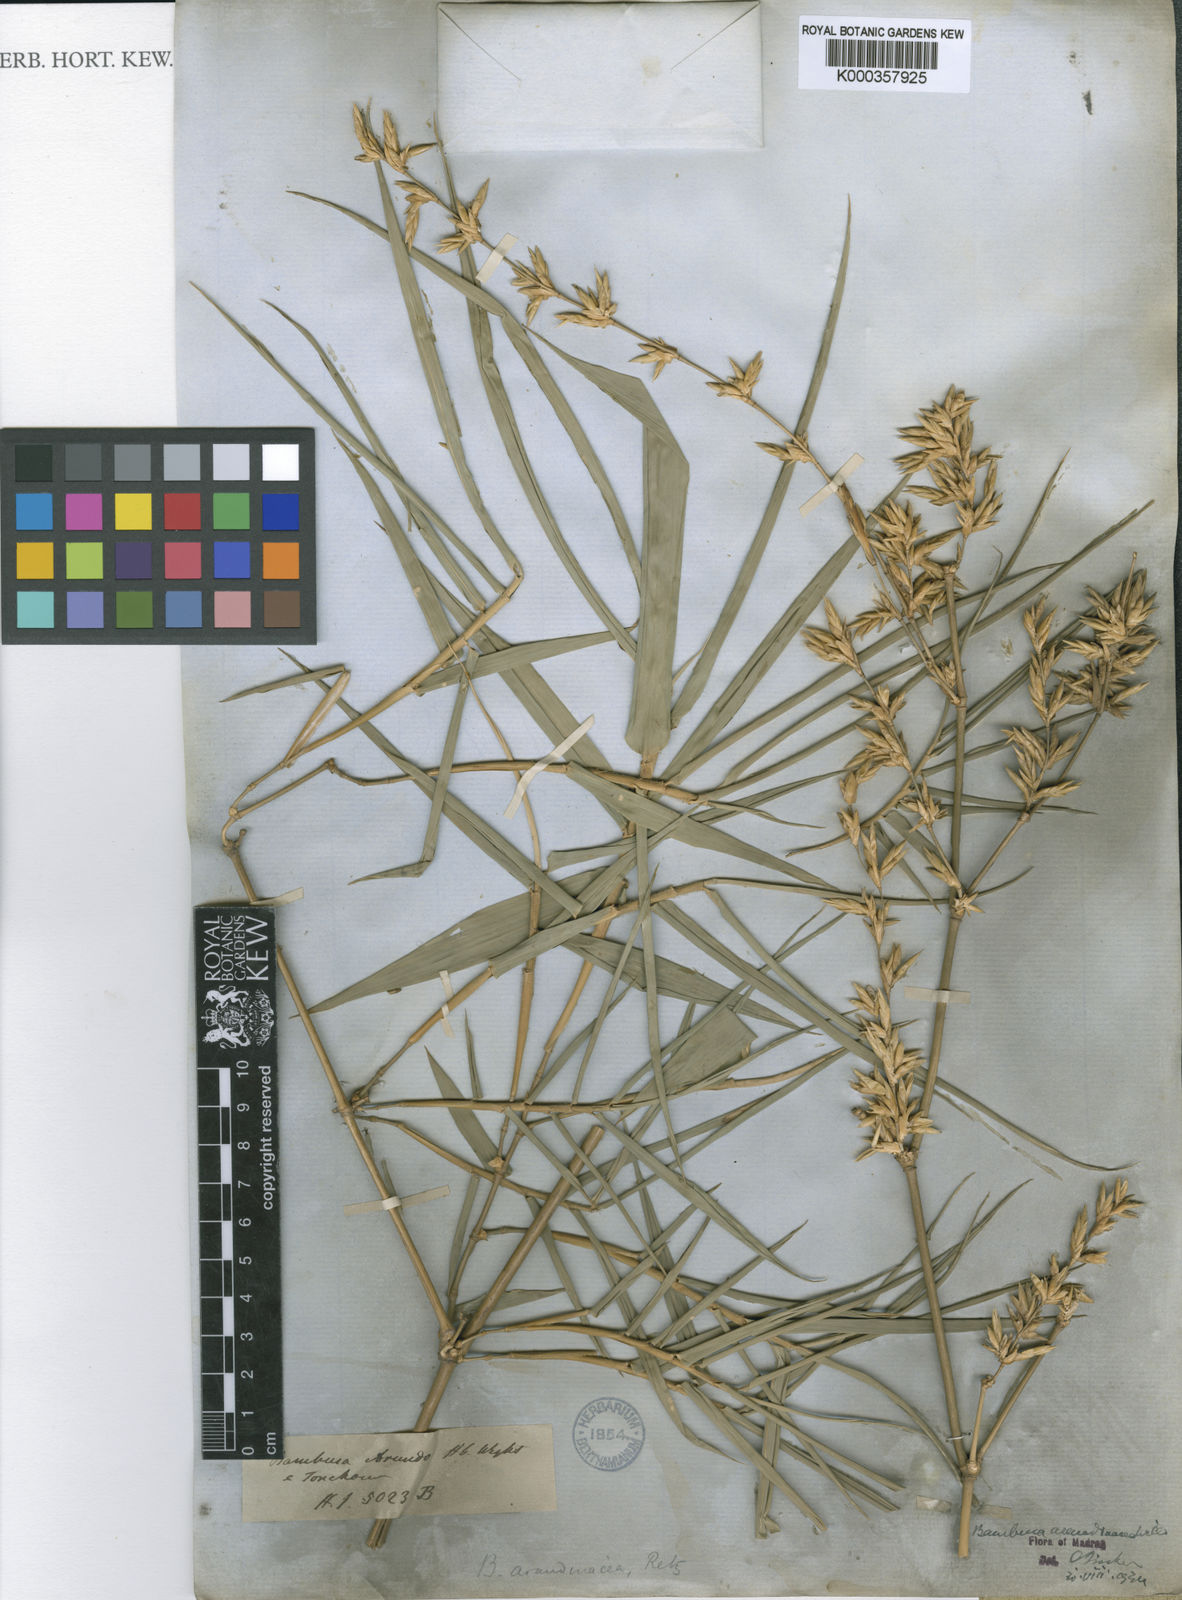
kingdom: Plantae
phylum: Tracheophyta
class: Liliopsida
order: Poales
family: Poaceae
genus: Bambusa
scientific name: Bambusa bambos
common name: Indian thorny bamboo
